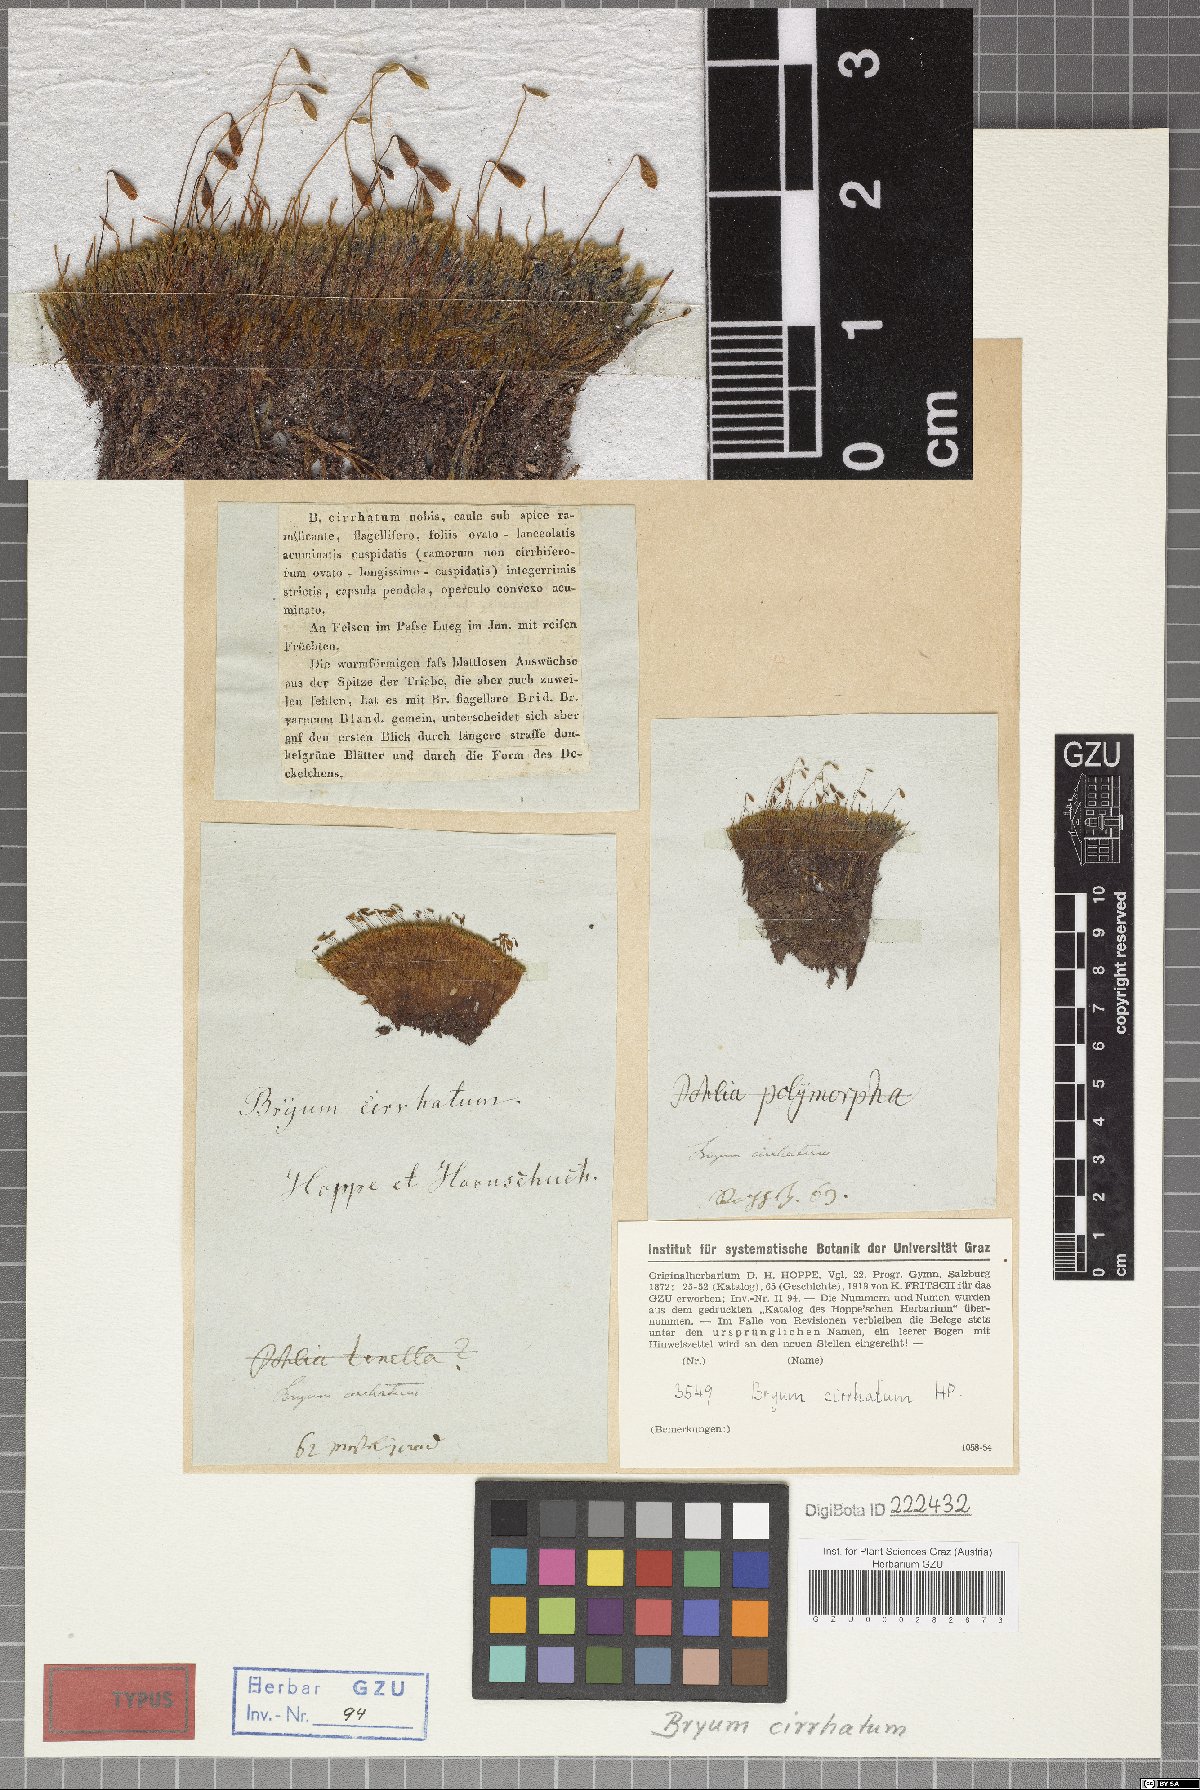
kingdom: Plantae
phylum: Bryophyta
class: Bryopsida
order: Bryales
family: Bryaceae
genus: Ptychostomum
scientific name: Ptychostomum lonchocaulon
